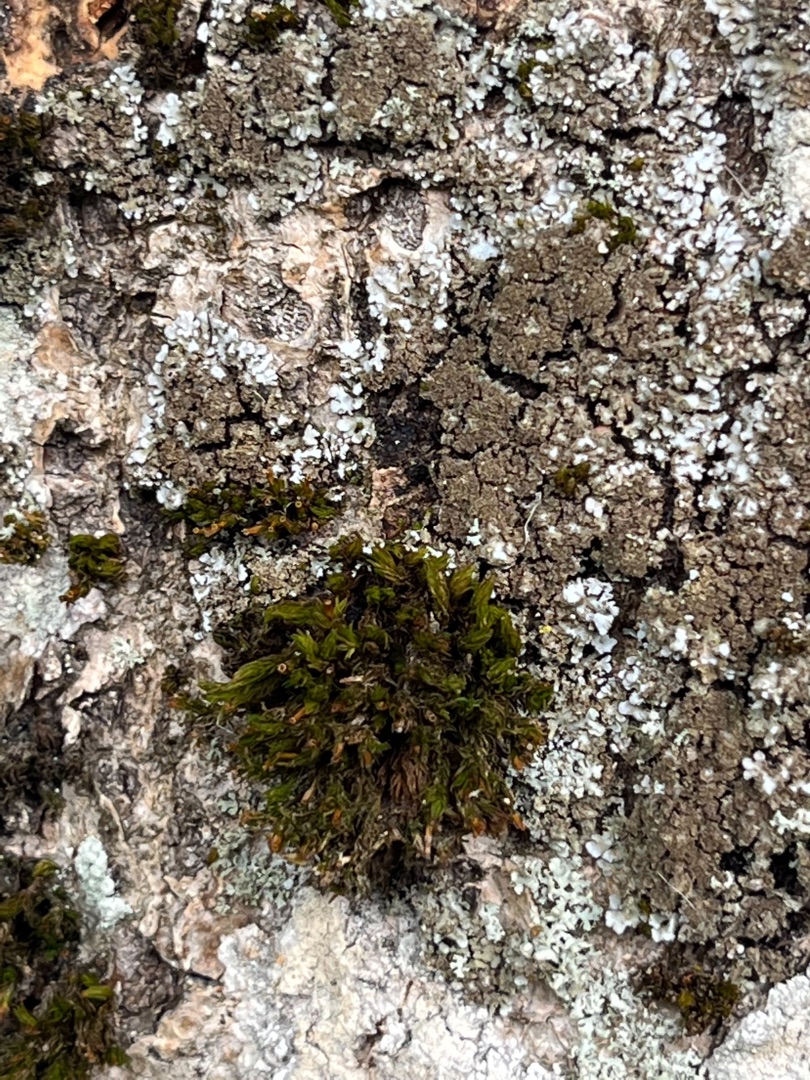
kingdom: Plantae
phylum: Bryophyta
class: Bryopsida
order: Orthotrichales
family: Orthotrichaceae
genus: Orthotrichum
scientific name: Orthotrichum
